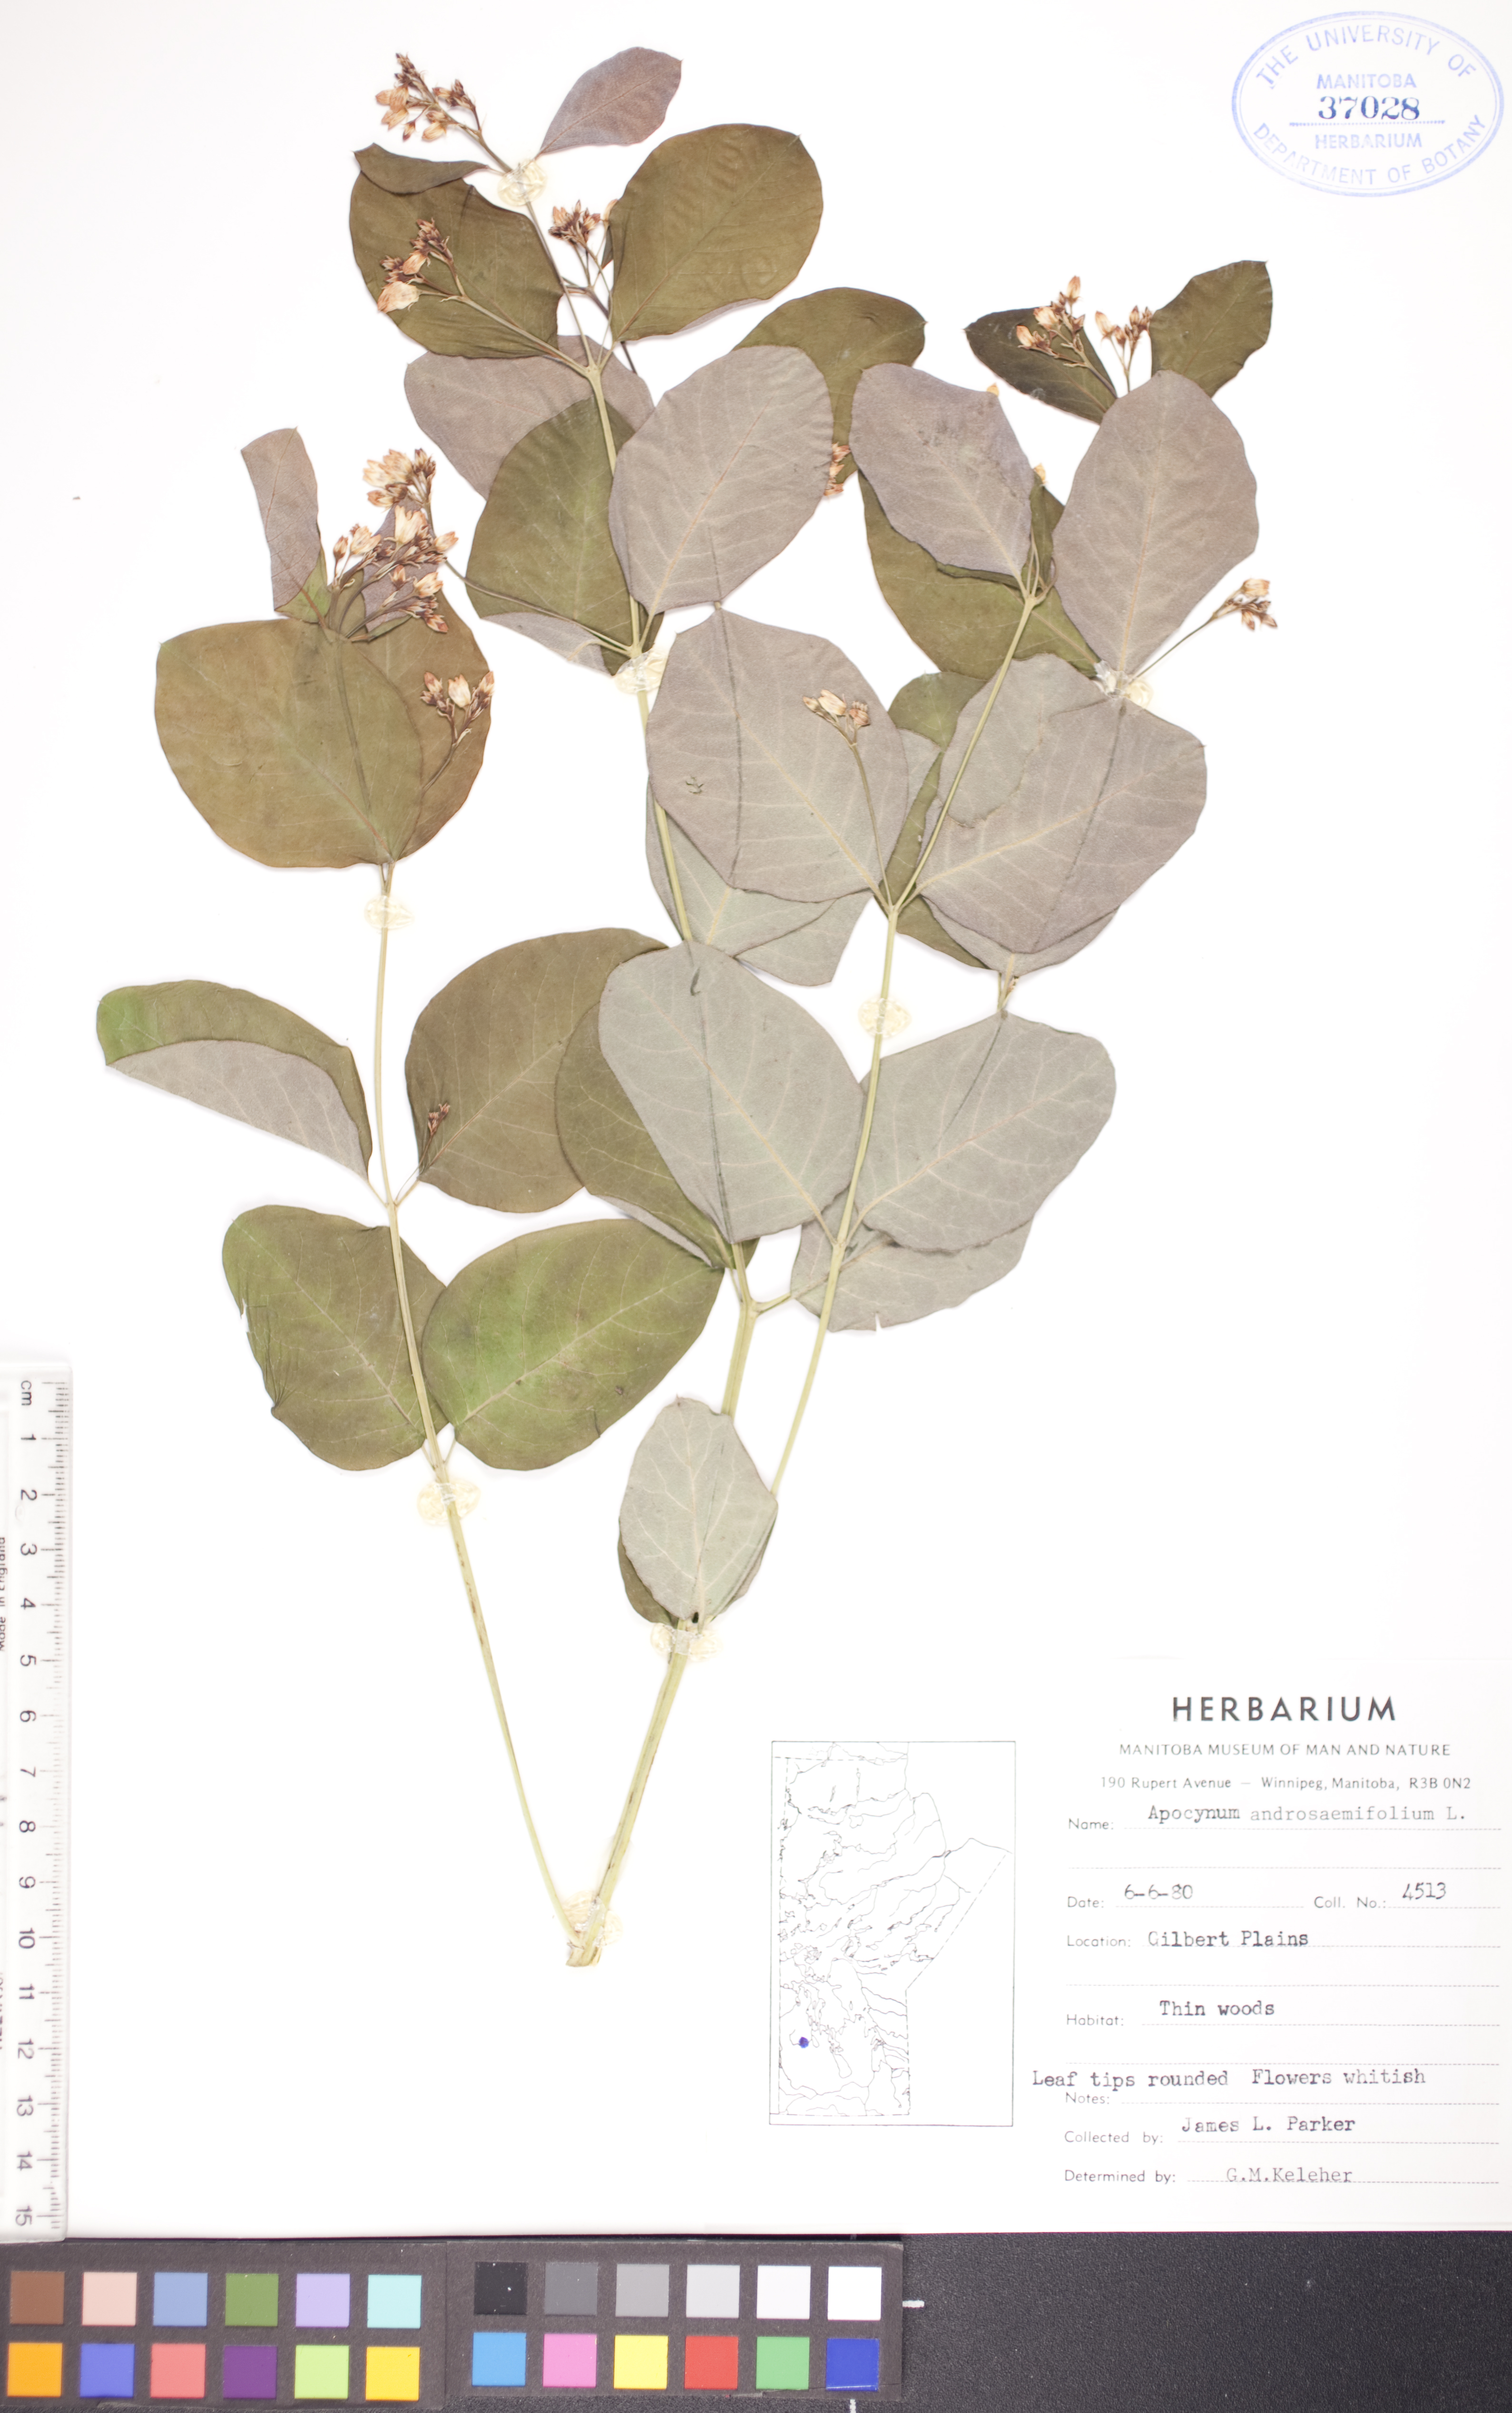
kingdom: Plantae
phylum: Tracheophyta
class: Magnoliopsida
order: Gentianales
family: Apocynaceae
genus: Apocynum
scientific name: Apocynum androsaemifolium
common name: Spreading dogbane
